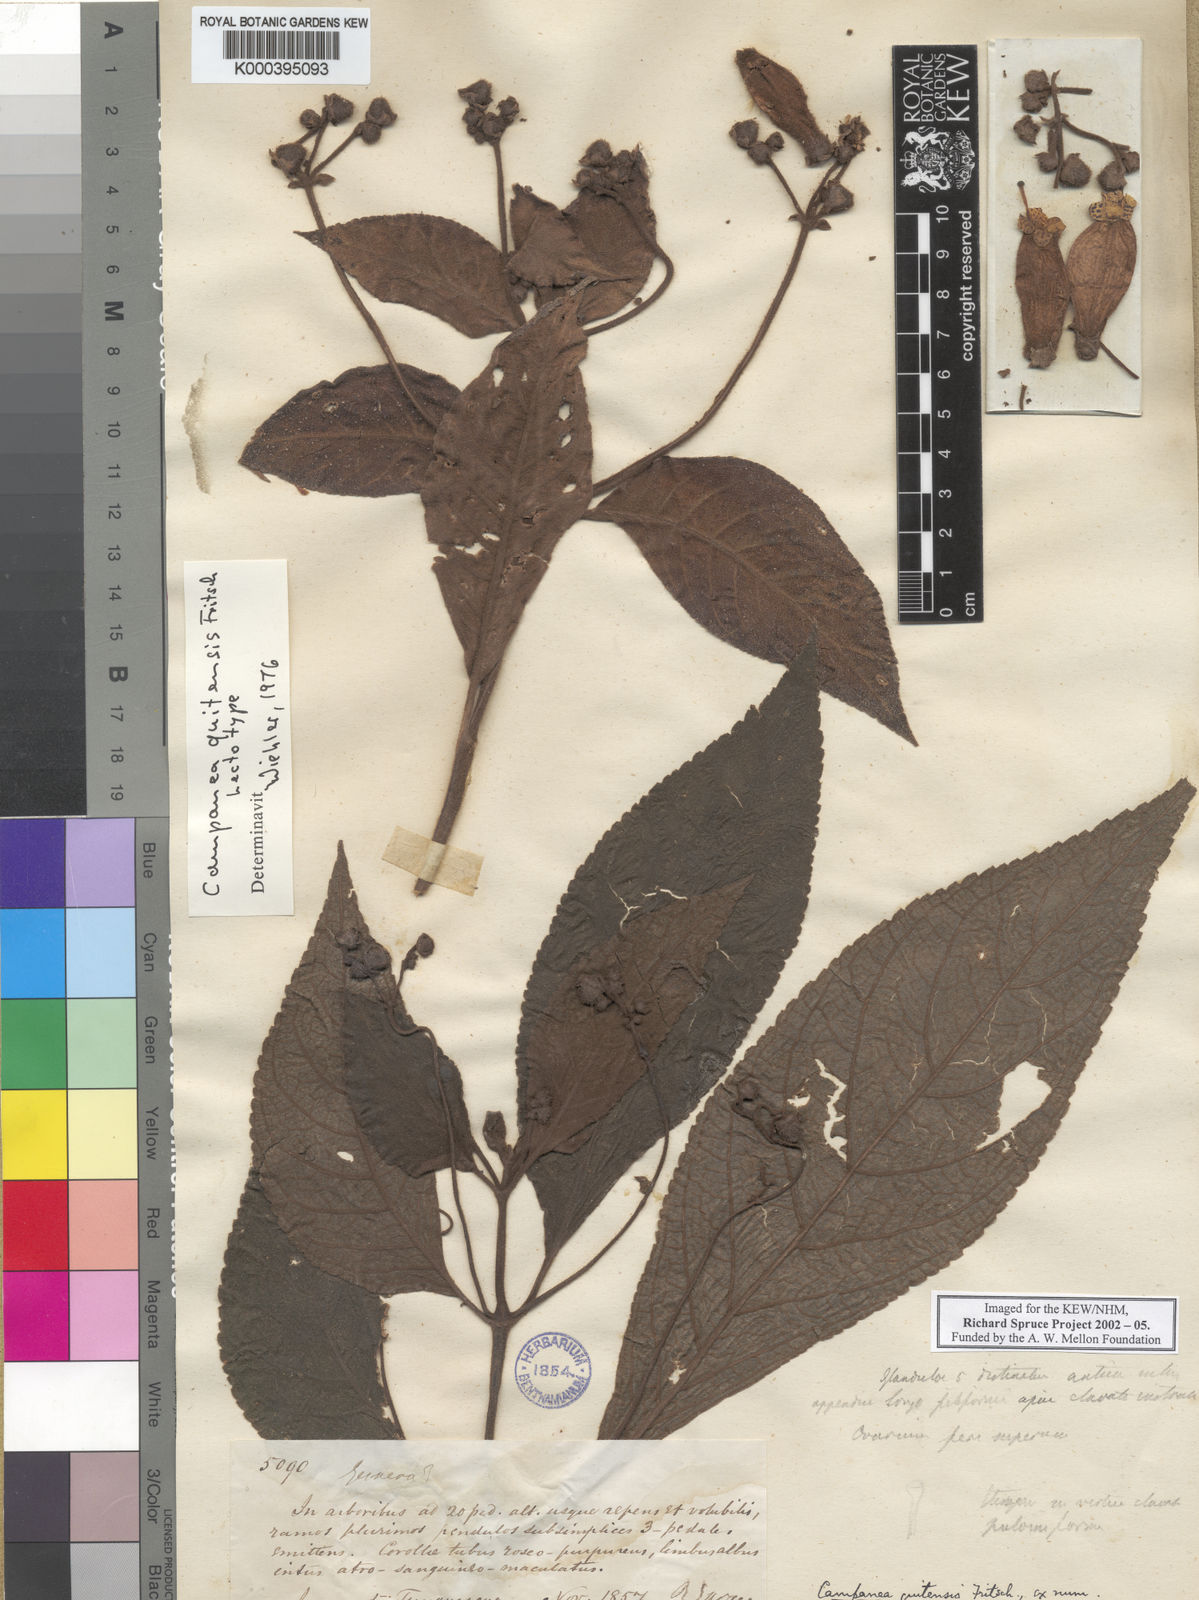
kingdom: Plantae
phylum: Tracheophyta
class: Magnoliopsida
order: Lamiales
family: Gesneriaceae
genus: Kohleria
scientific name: Kohleria affinis
